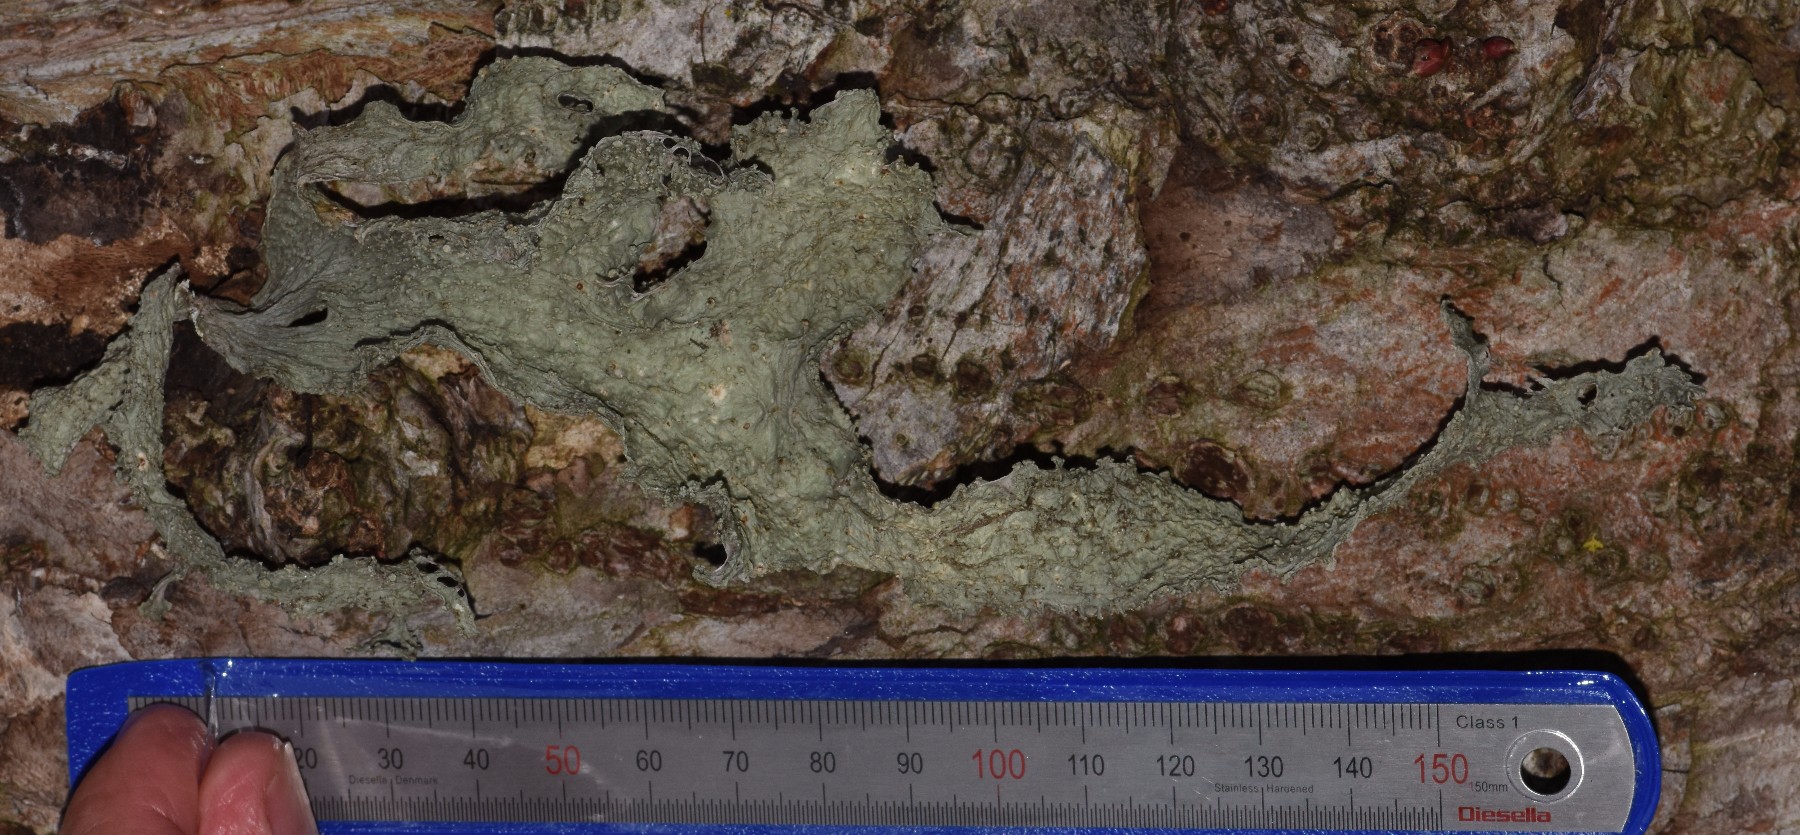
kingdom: Fungi
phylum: Ascomycota
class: Lecanoromycetes
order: Lecanorales
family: Ramalinaceae
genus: Ramalina
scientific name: Ramalina fraxinea
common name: stor grenlav
